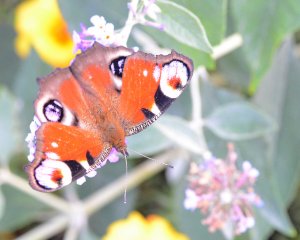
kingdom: Animalia
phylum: Arthropoda
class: Insecta
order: Lepidoptera
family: Nymphalidae
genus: Aglais
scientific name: Aglais io
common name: European Peacock
